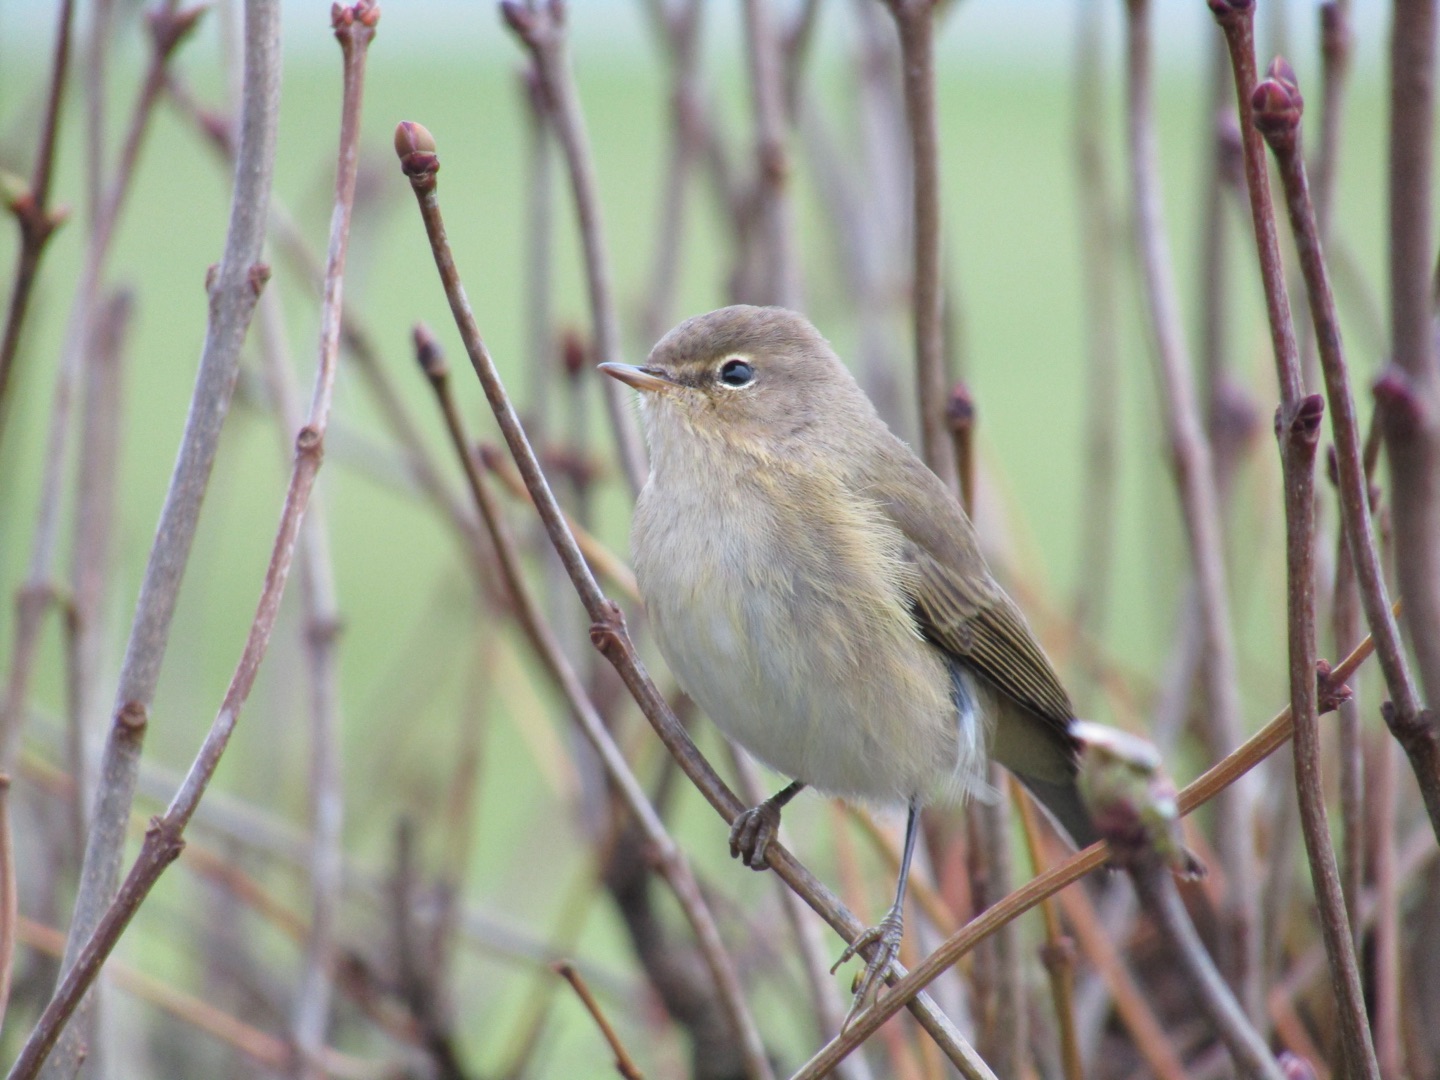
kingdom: Animalia
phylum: Chordata
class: Aves
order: Passeriformes
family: Phylloscopidae
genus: Phylloscopus
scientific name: Phylloscopus collybita
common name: Gransanger
